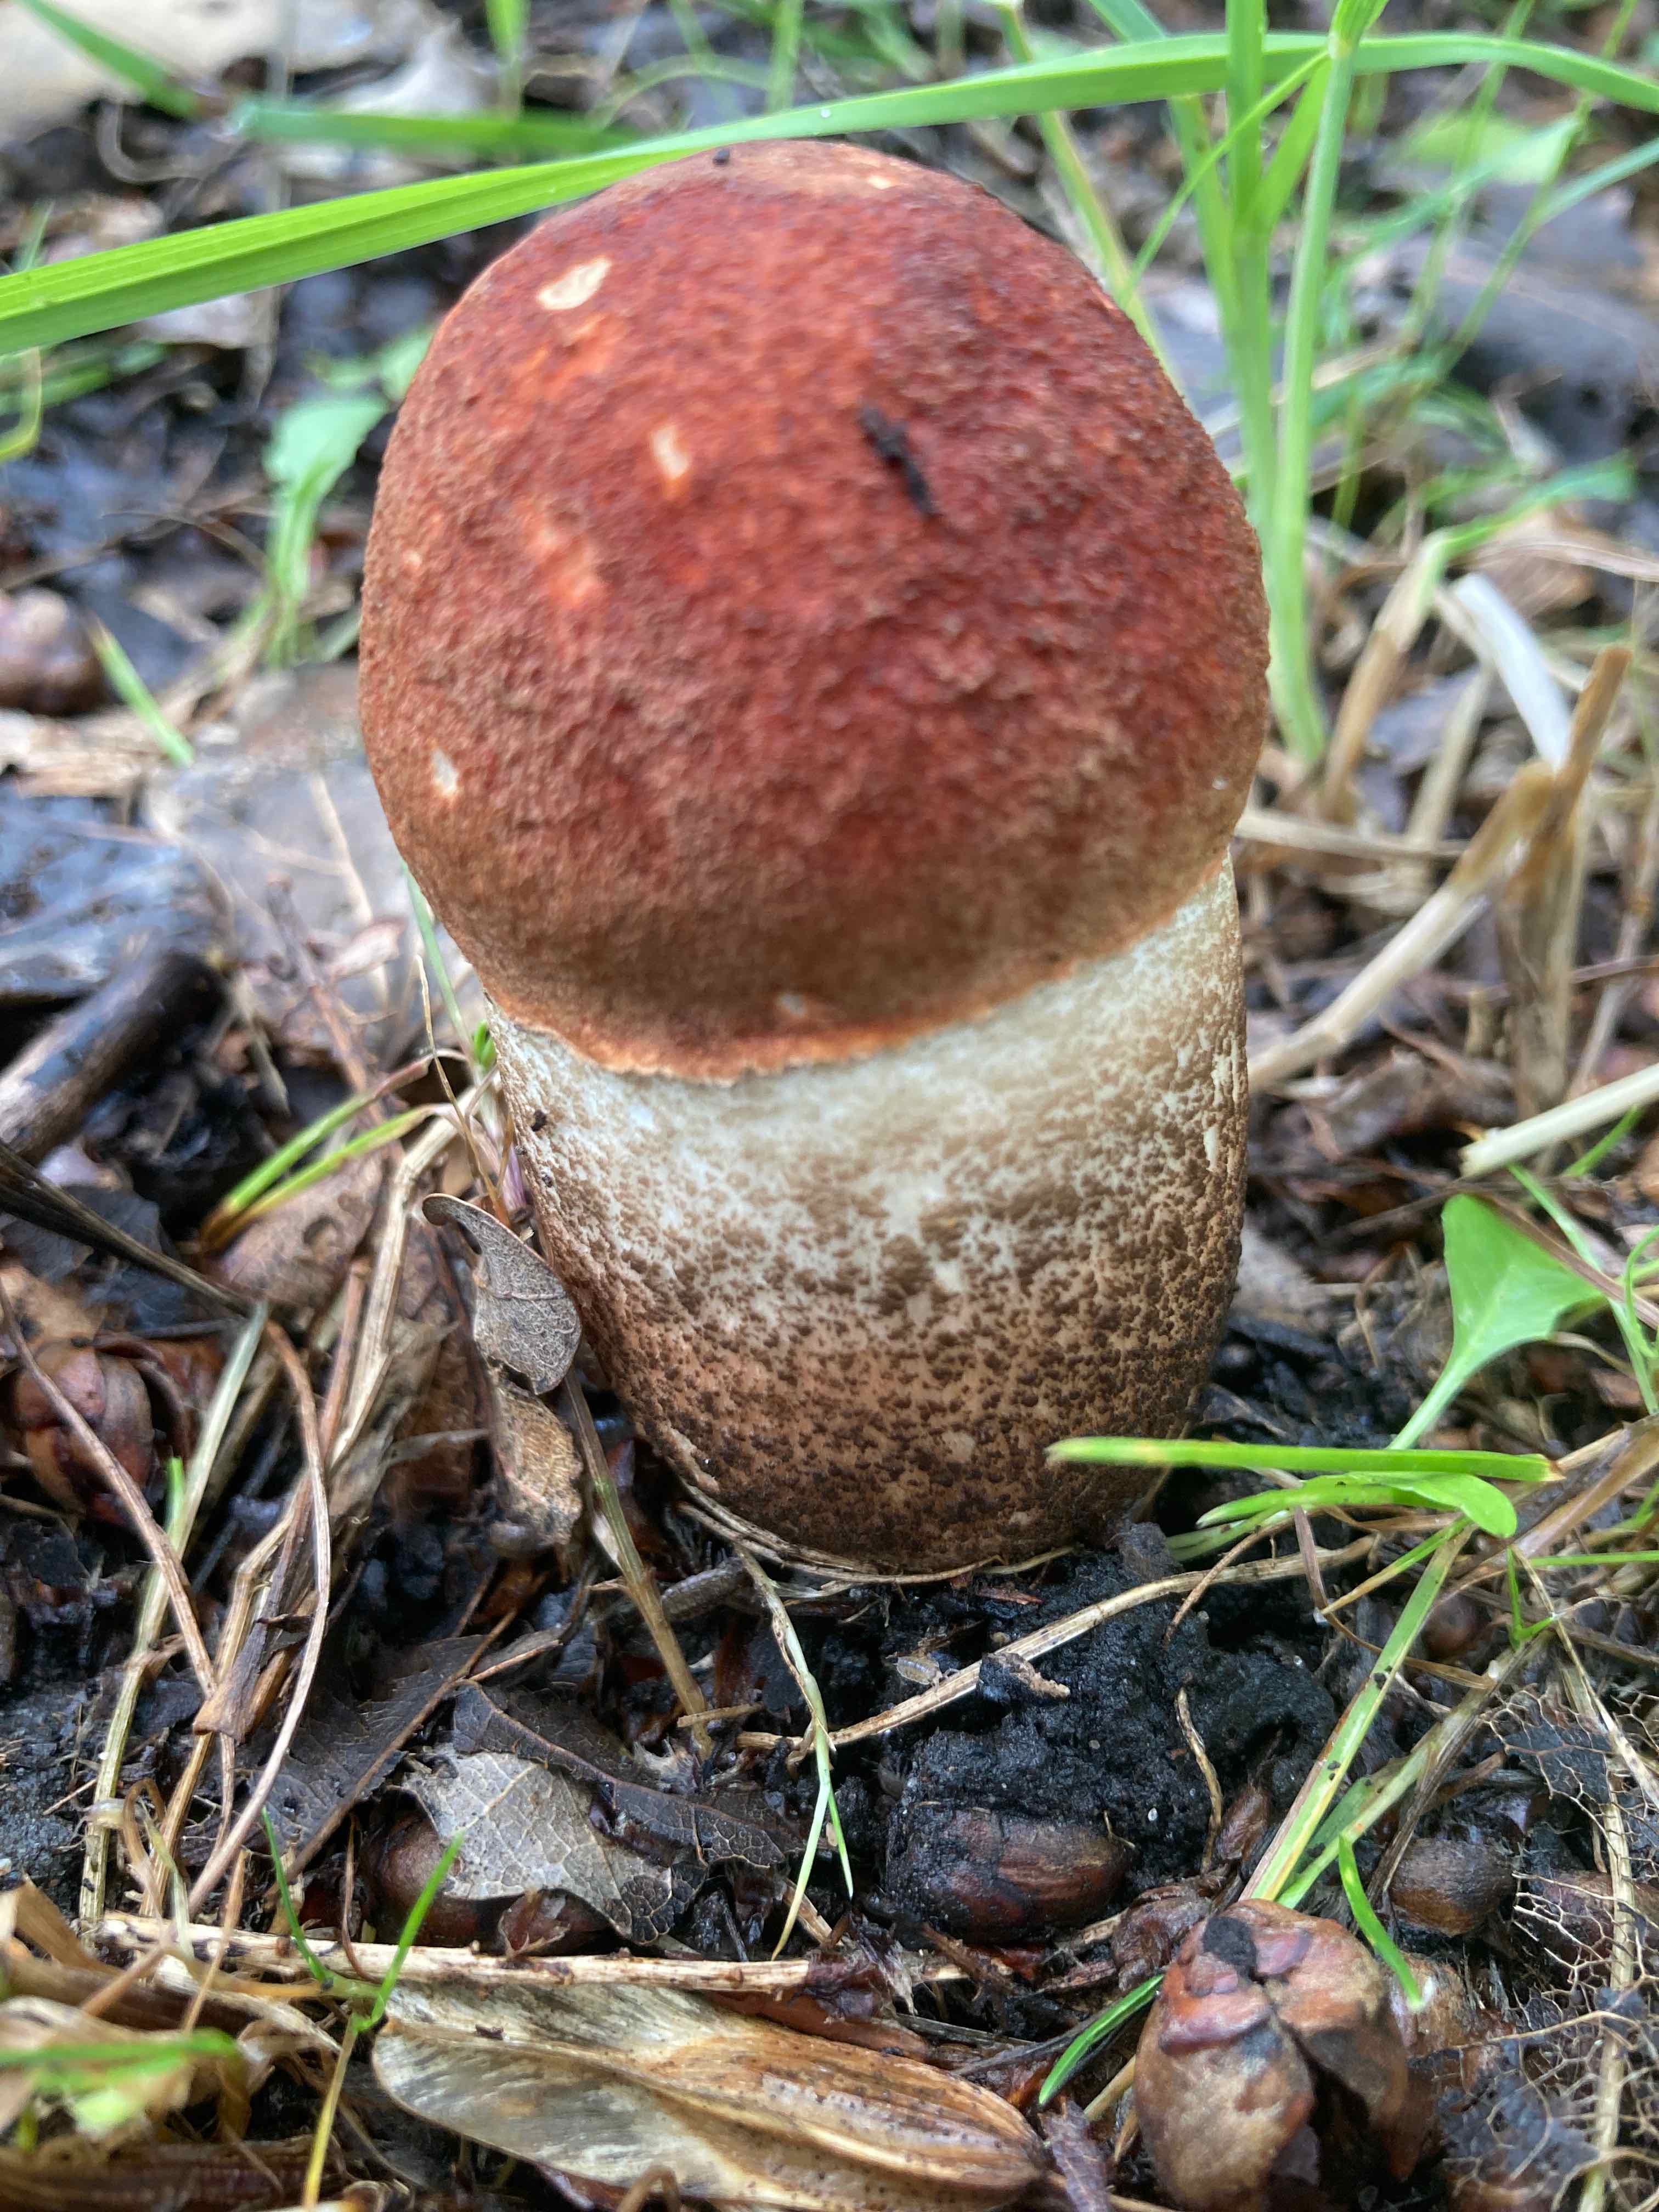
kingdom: Fungi
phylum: Basidiomycota
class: Agaricomycetes
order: Boletales
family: Boletaceae
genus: Leccinum
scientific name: Leccinum aurantiacum
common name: rustrød skælrørhat
